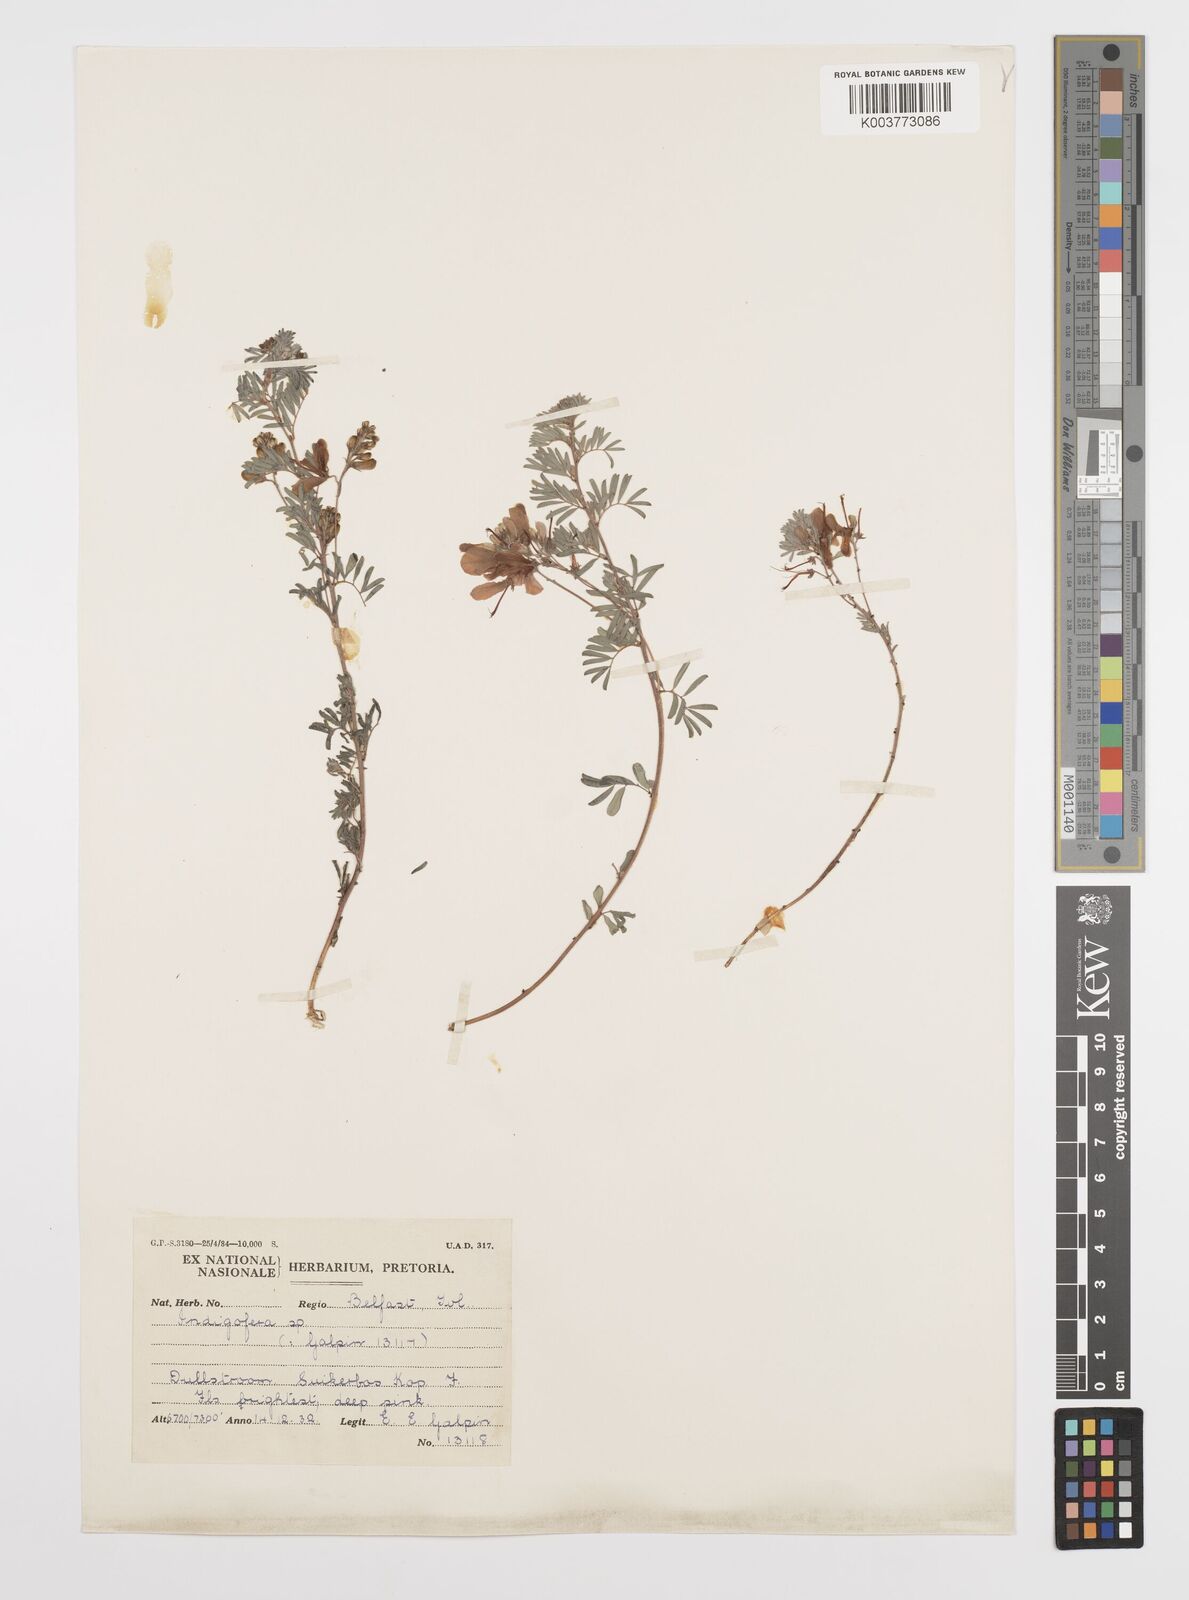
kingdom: Plantae
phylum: Tracheophyta
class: Magnoliopsida
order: Fabales
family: Fabaceae
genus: Indigofera
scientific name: Indigofera
